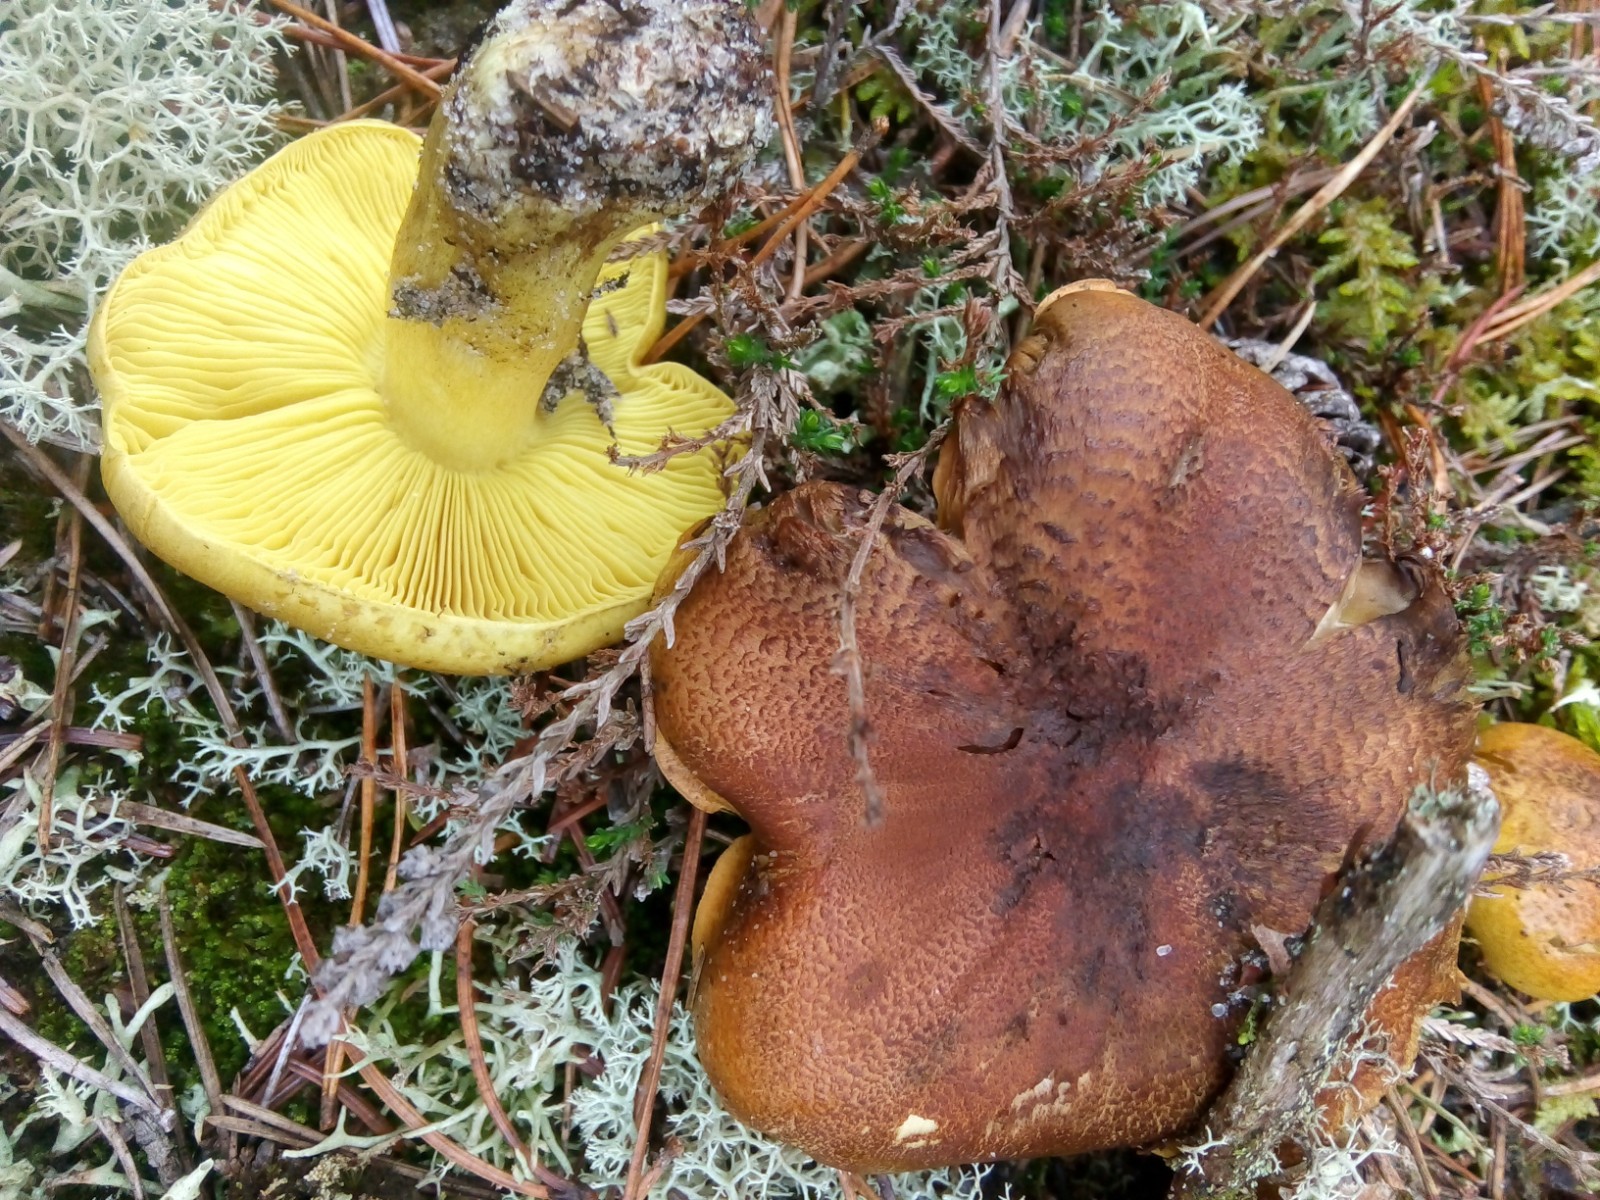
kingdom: Fungi
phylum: Basidiomycota
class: Agaricomycetes
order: Agaricales
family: Tricholomataceae
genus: Tricholoma
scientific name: Tricholoma equestre
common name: ægte ridderhat
